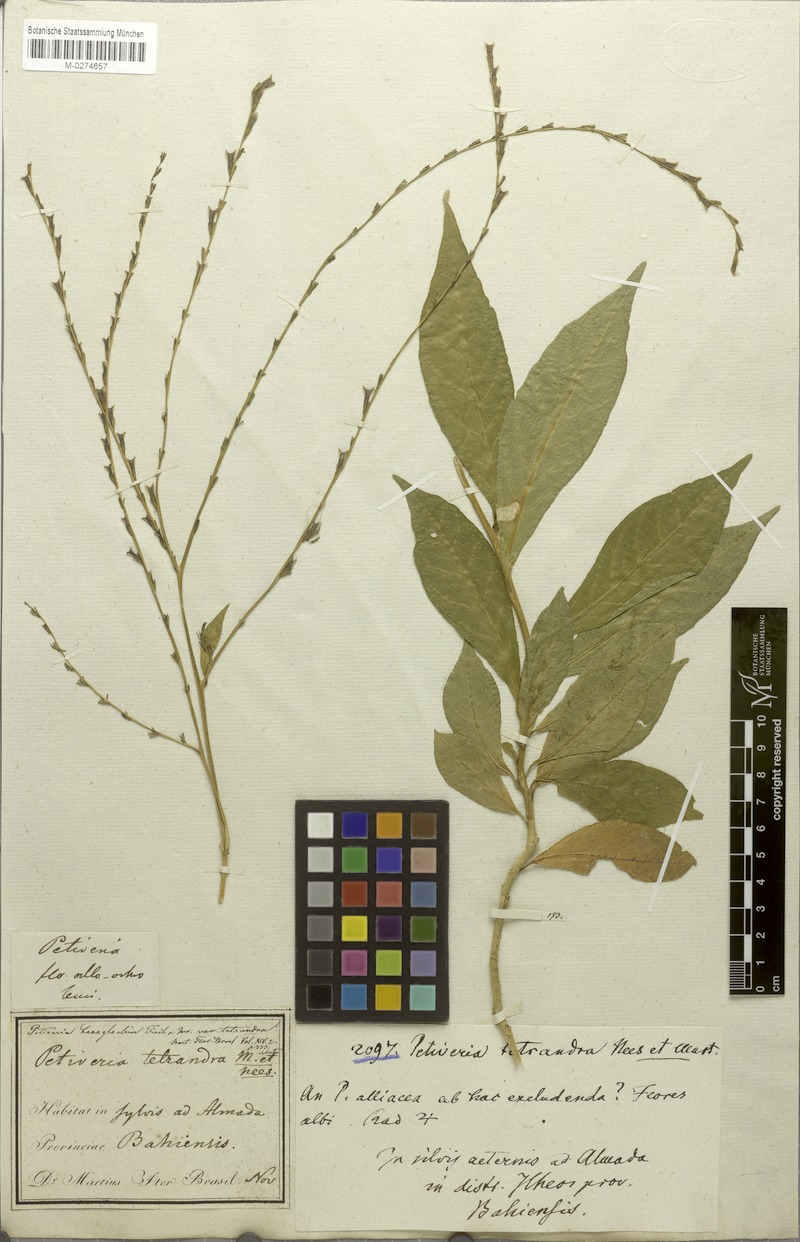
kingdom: Plantae
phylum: Tracheophyta
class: Magnoliopsida
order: Caryophyllales
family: Phytolaccaceae
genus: Petiveria
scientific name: Petiveria alliacea
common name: Garlicweed
